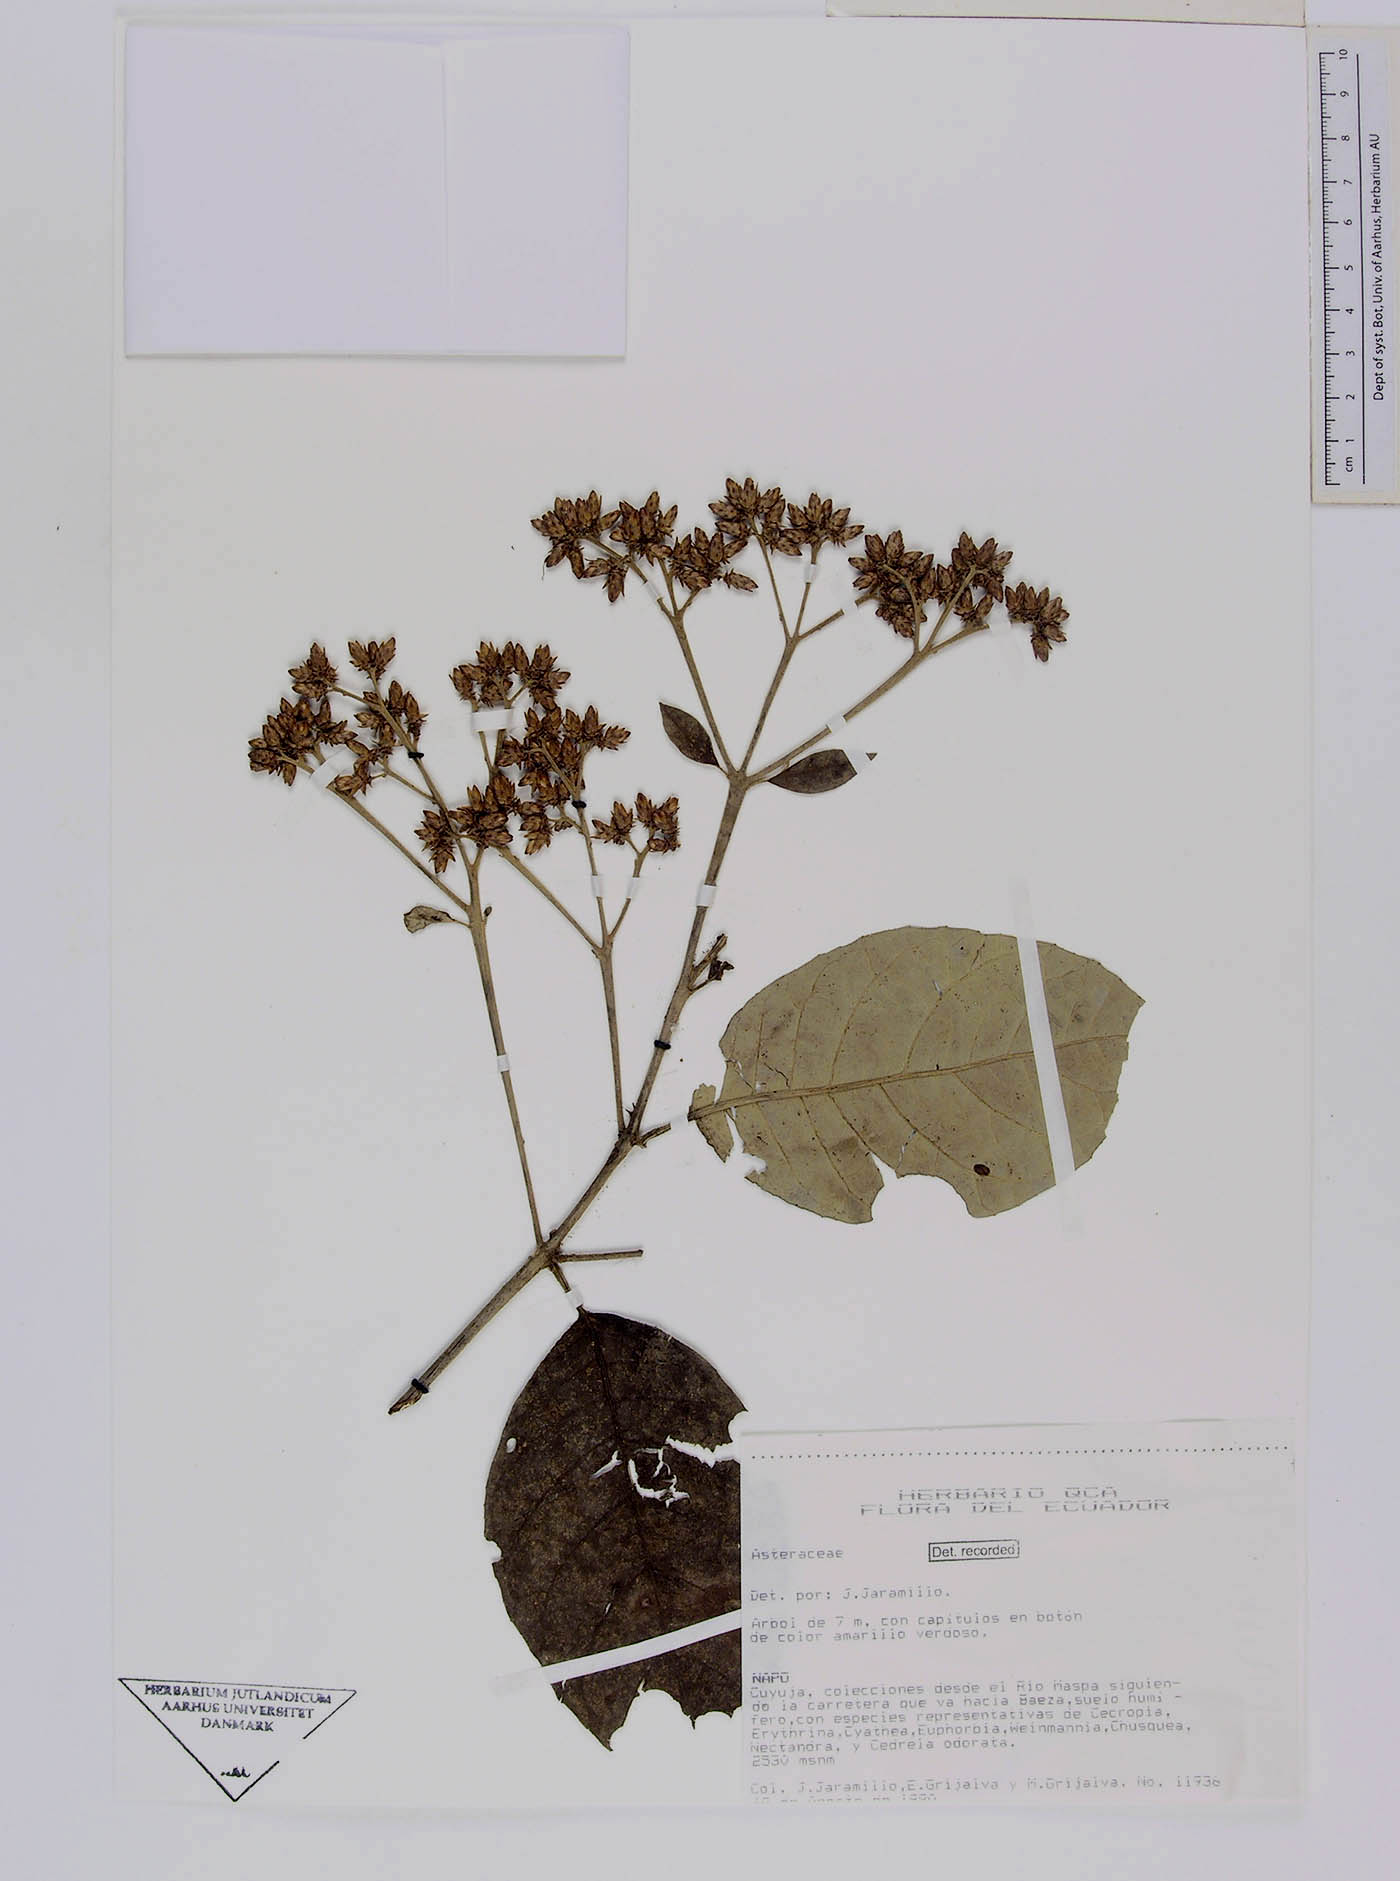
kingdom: Plantae
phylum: Tracheophyta
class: Magnoliopsida
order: Asterales
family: Asteraceae
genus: Critoniopsis
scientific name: Critoniopsis sodiroioides
